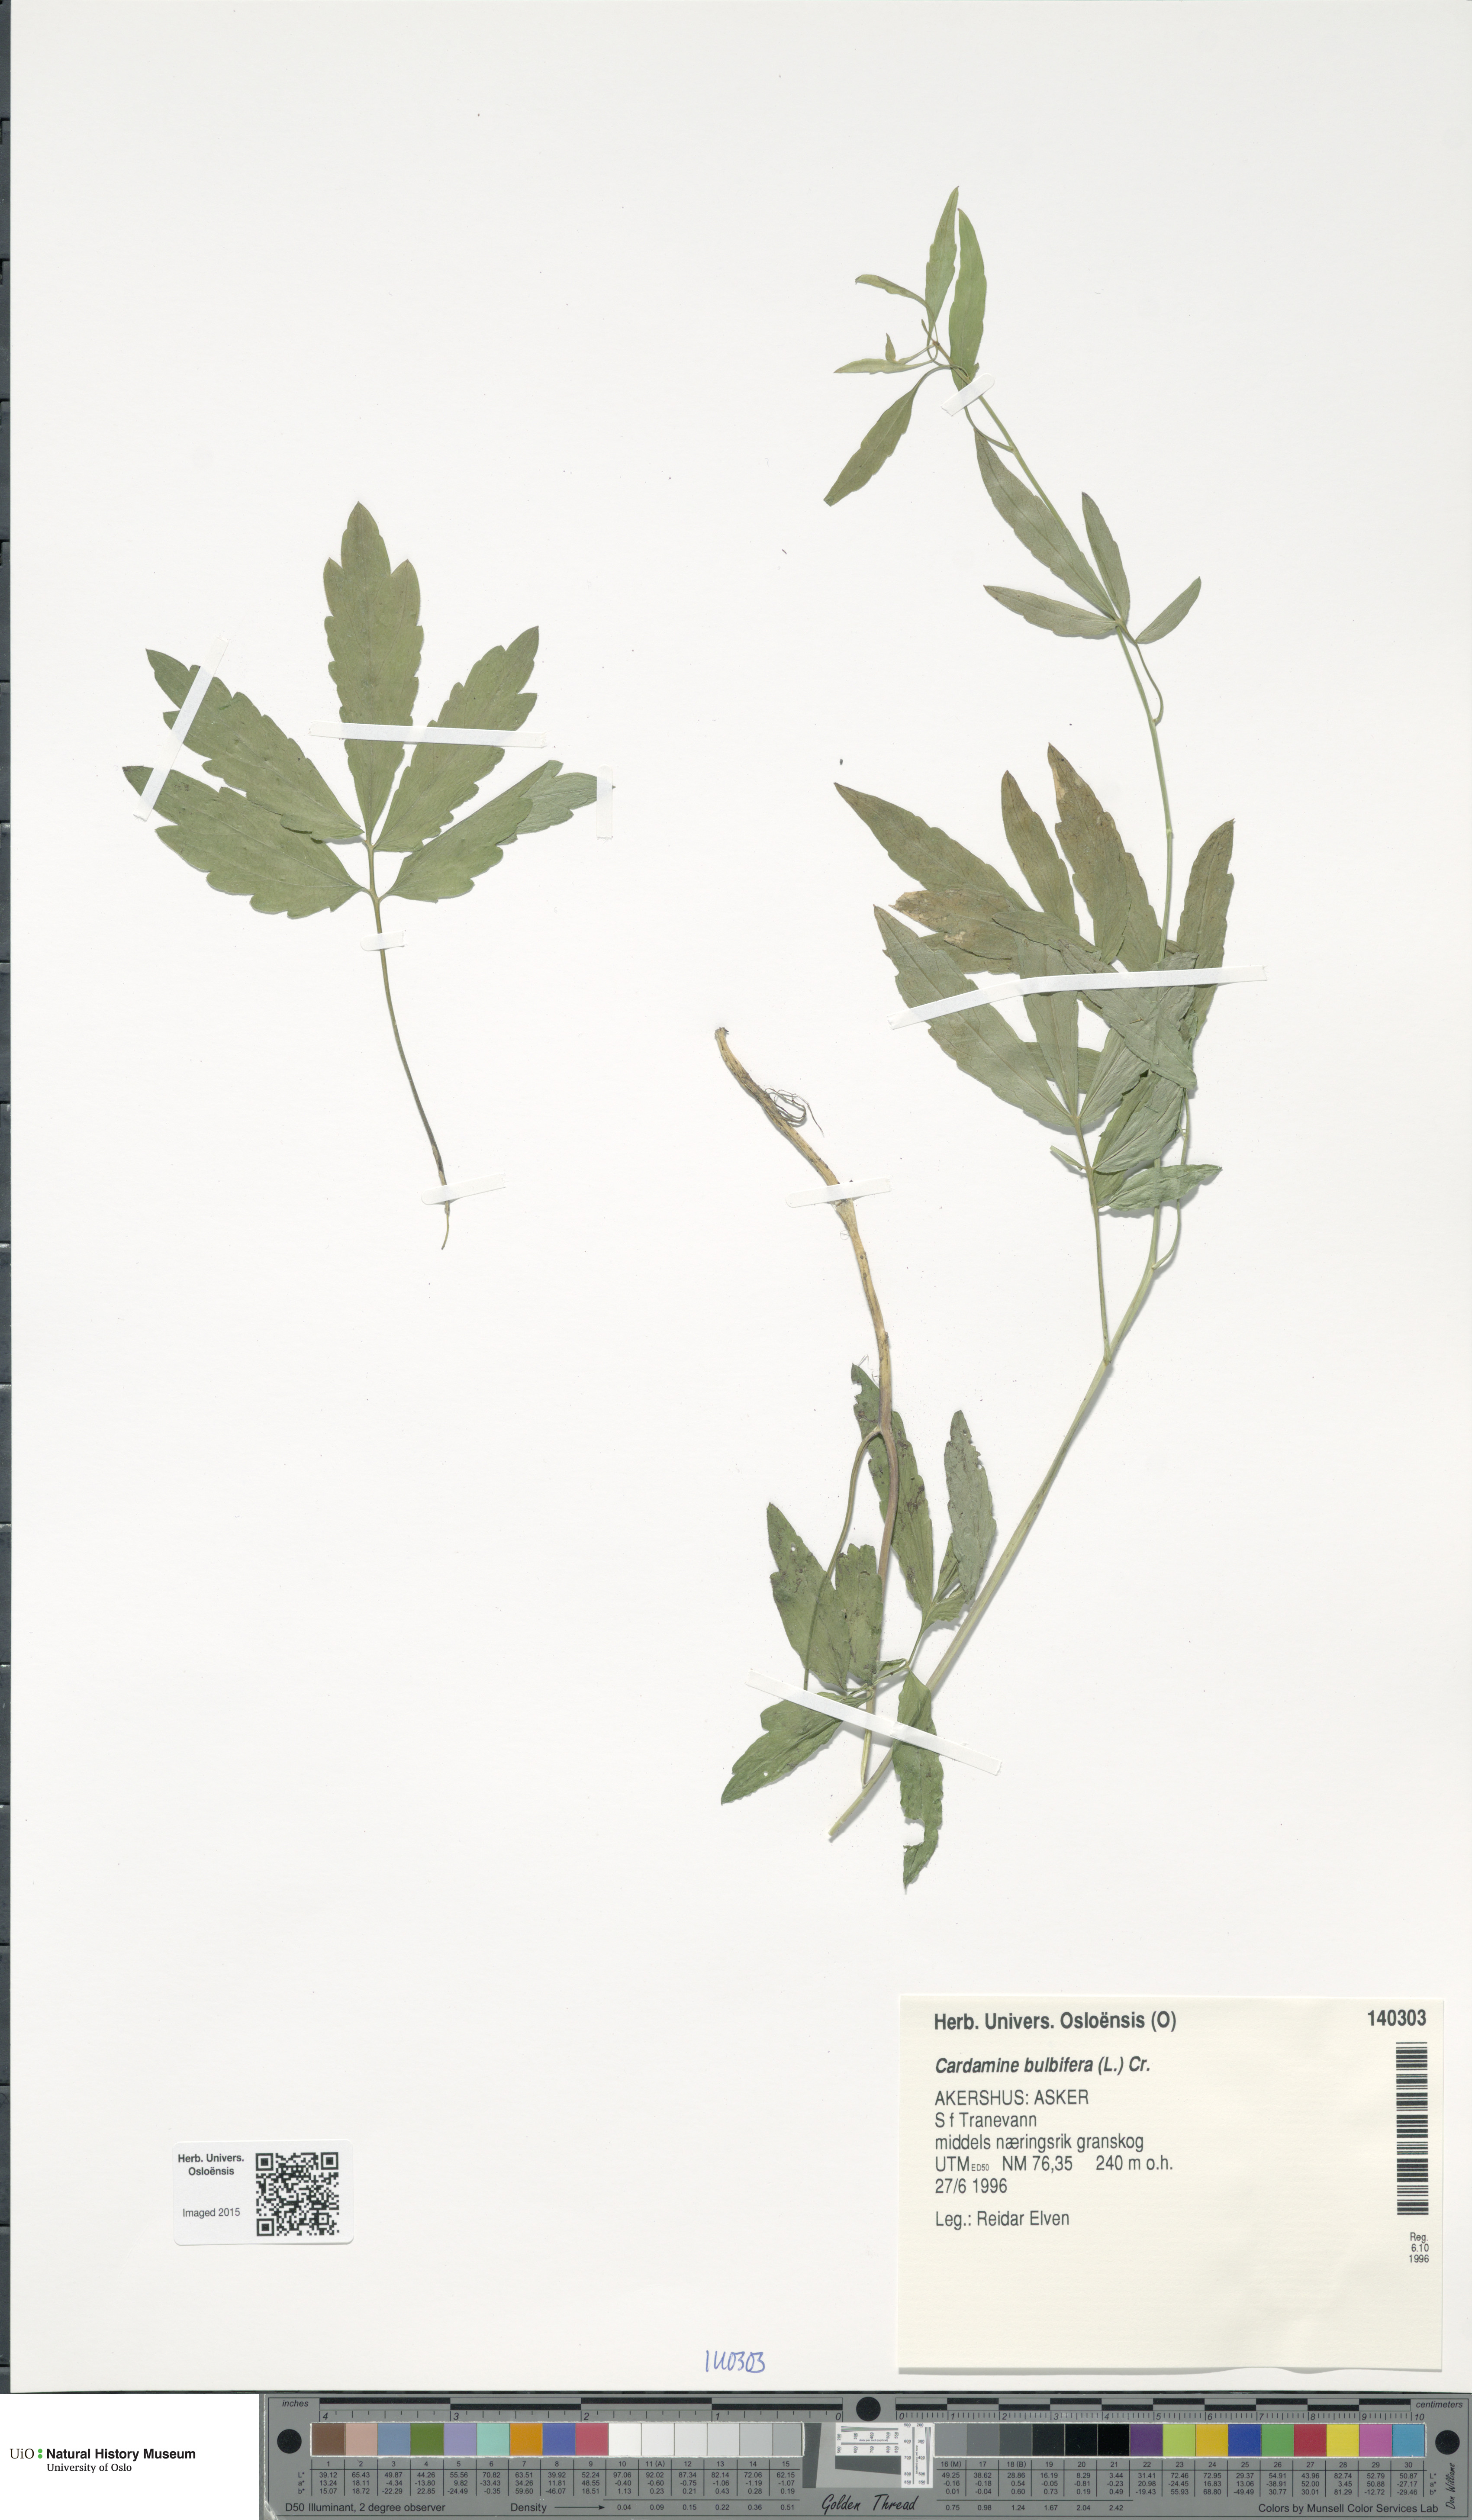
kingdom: Plantae
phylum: Tracheophyta
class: Magnoliopsida
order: Brassicales
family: Brassicaceae
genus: Cardamine
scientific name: Cardamine bulbifera
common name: Coralroot bittercress
